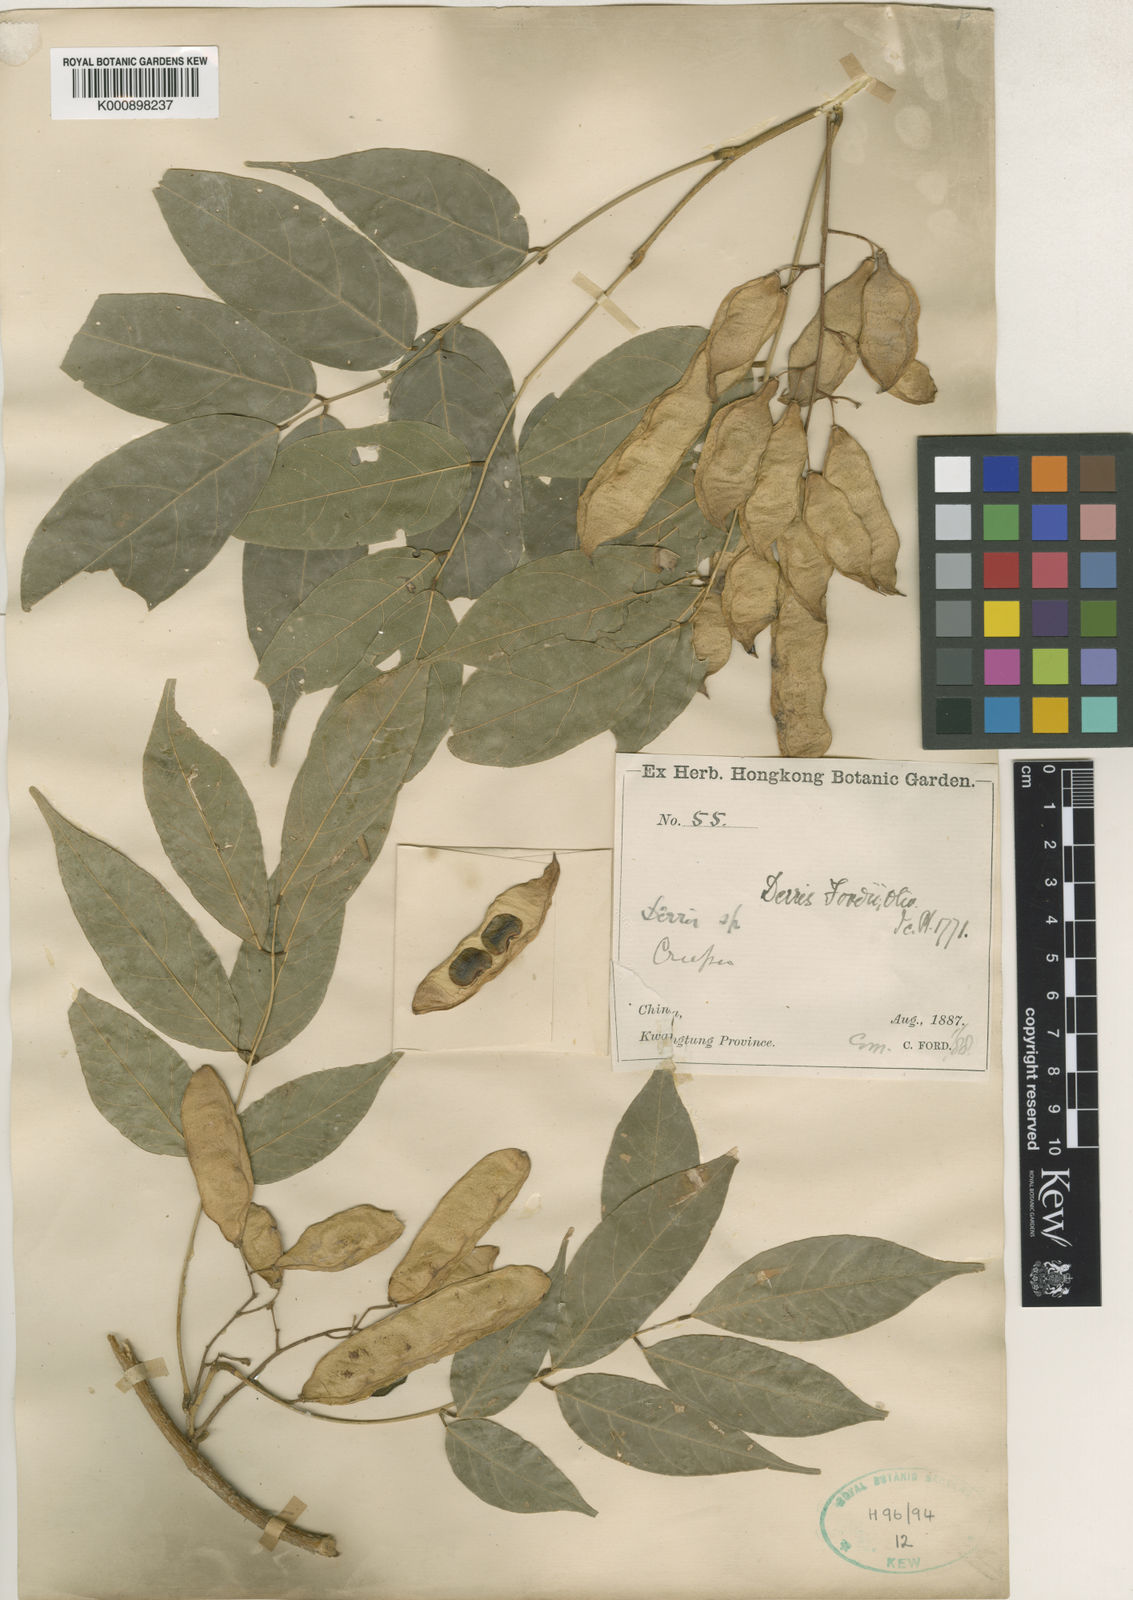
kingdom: Plantae
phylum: Tracheophyta
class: Magnoliopsida
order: Fabales
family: Fabaceae
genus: Derris
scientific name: Derris fordii
